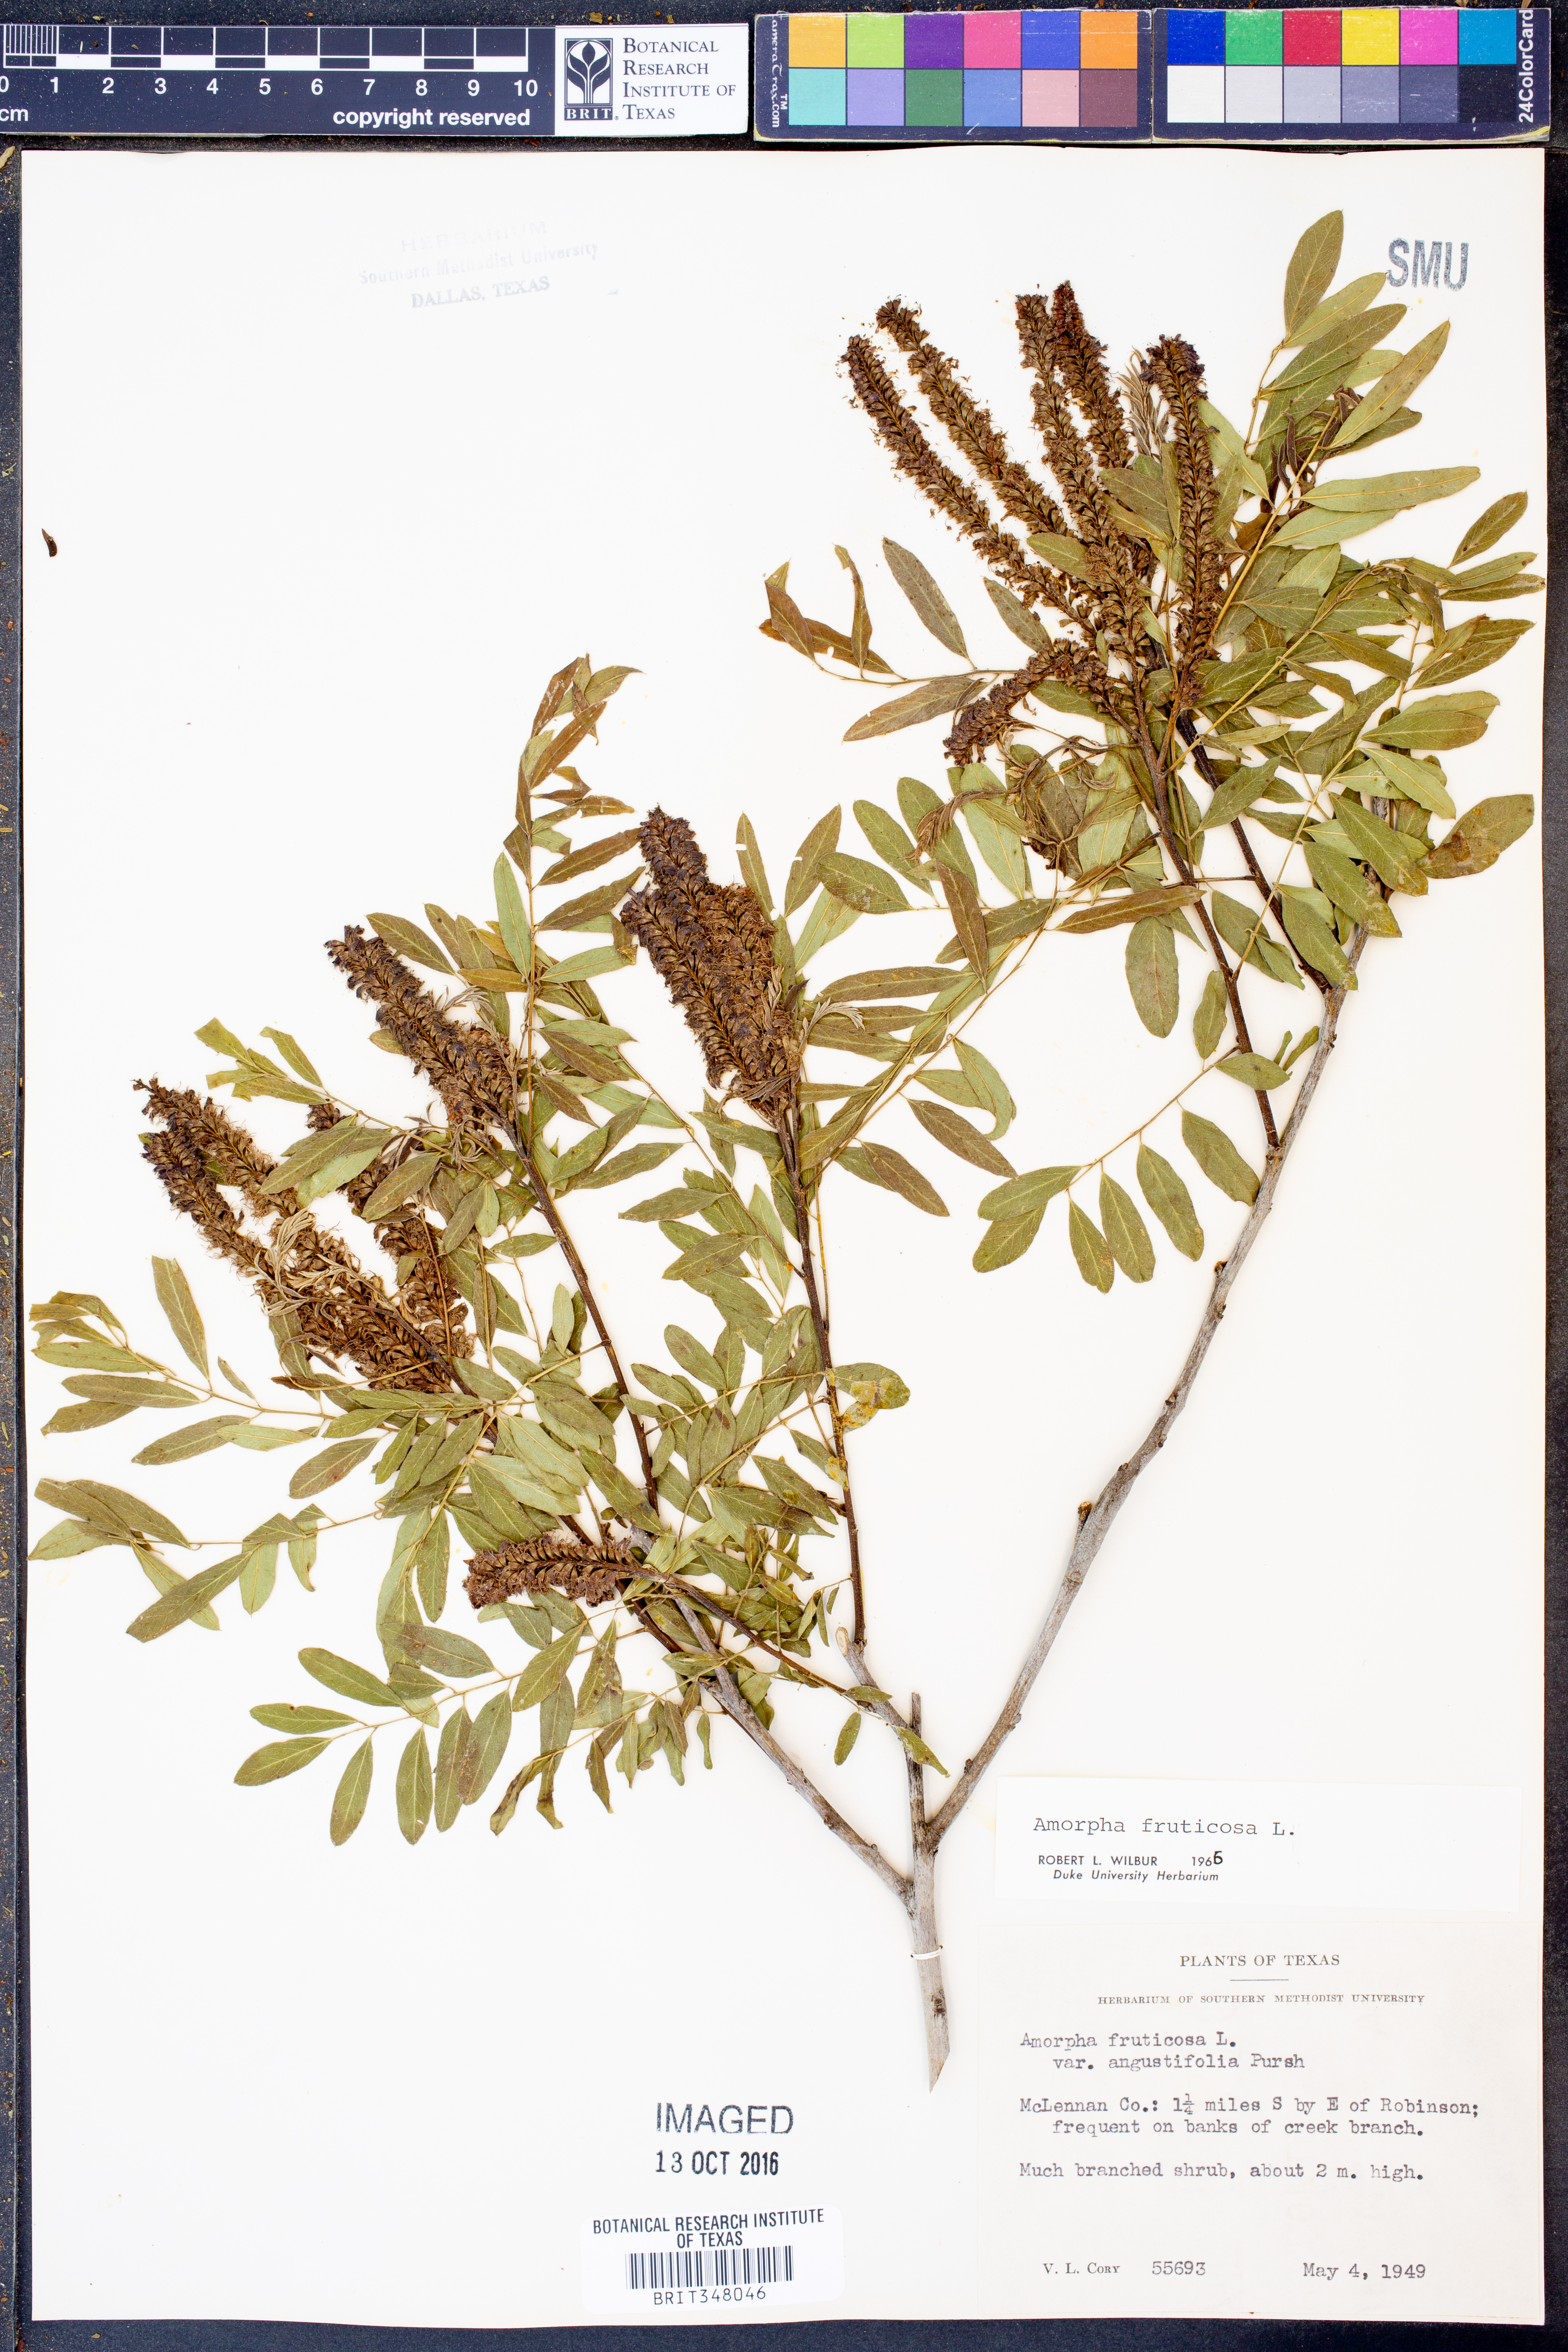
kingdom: Plantae
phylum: Tracheophyta
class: Magnoliopsida
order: Fabales
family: Fabaceae
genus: Amorpha
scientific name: Amorpha fruticosa
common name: False indigo
